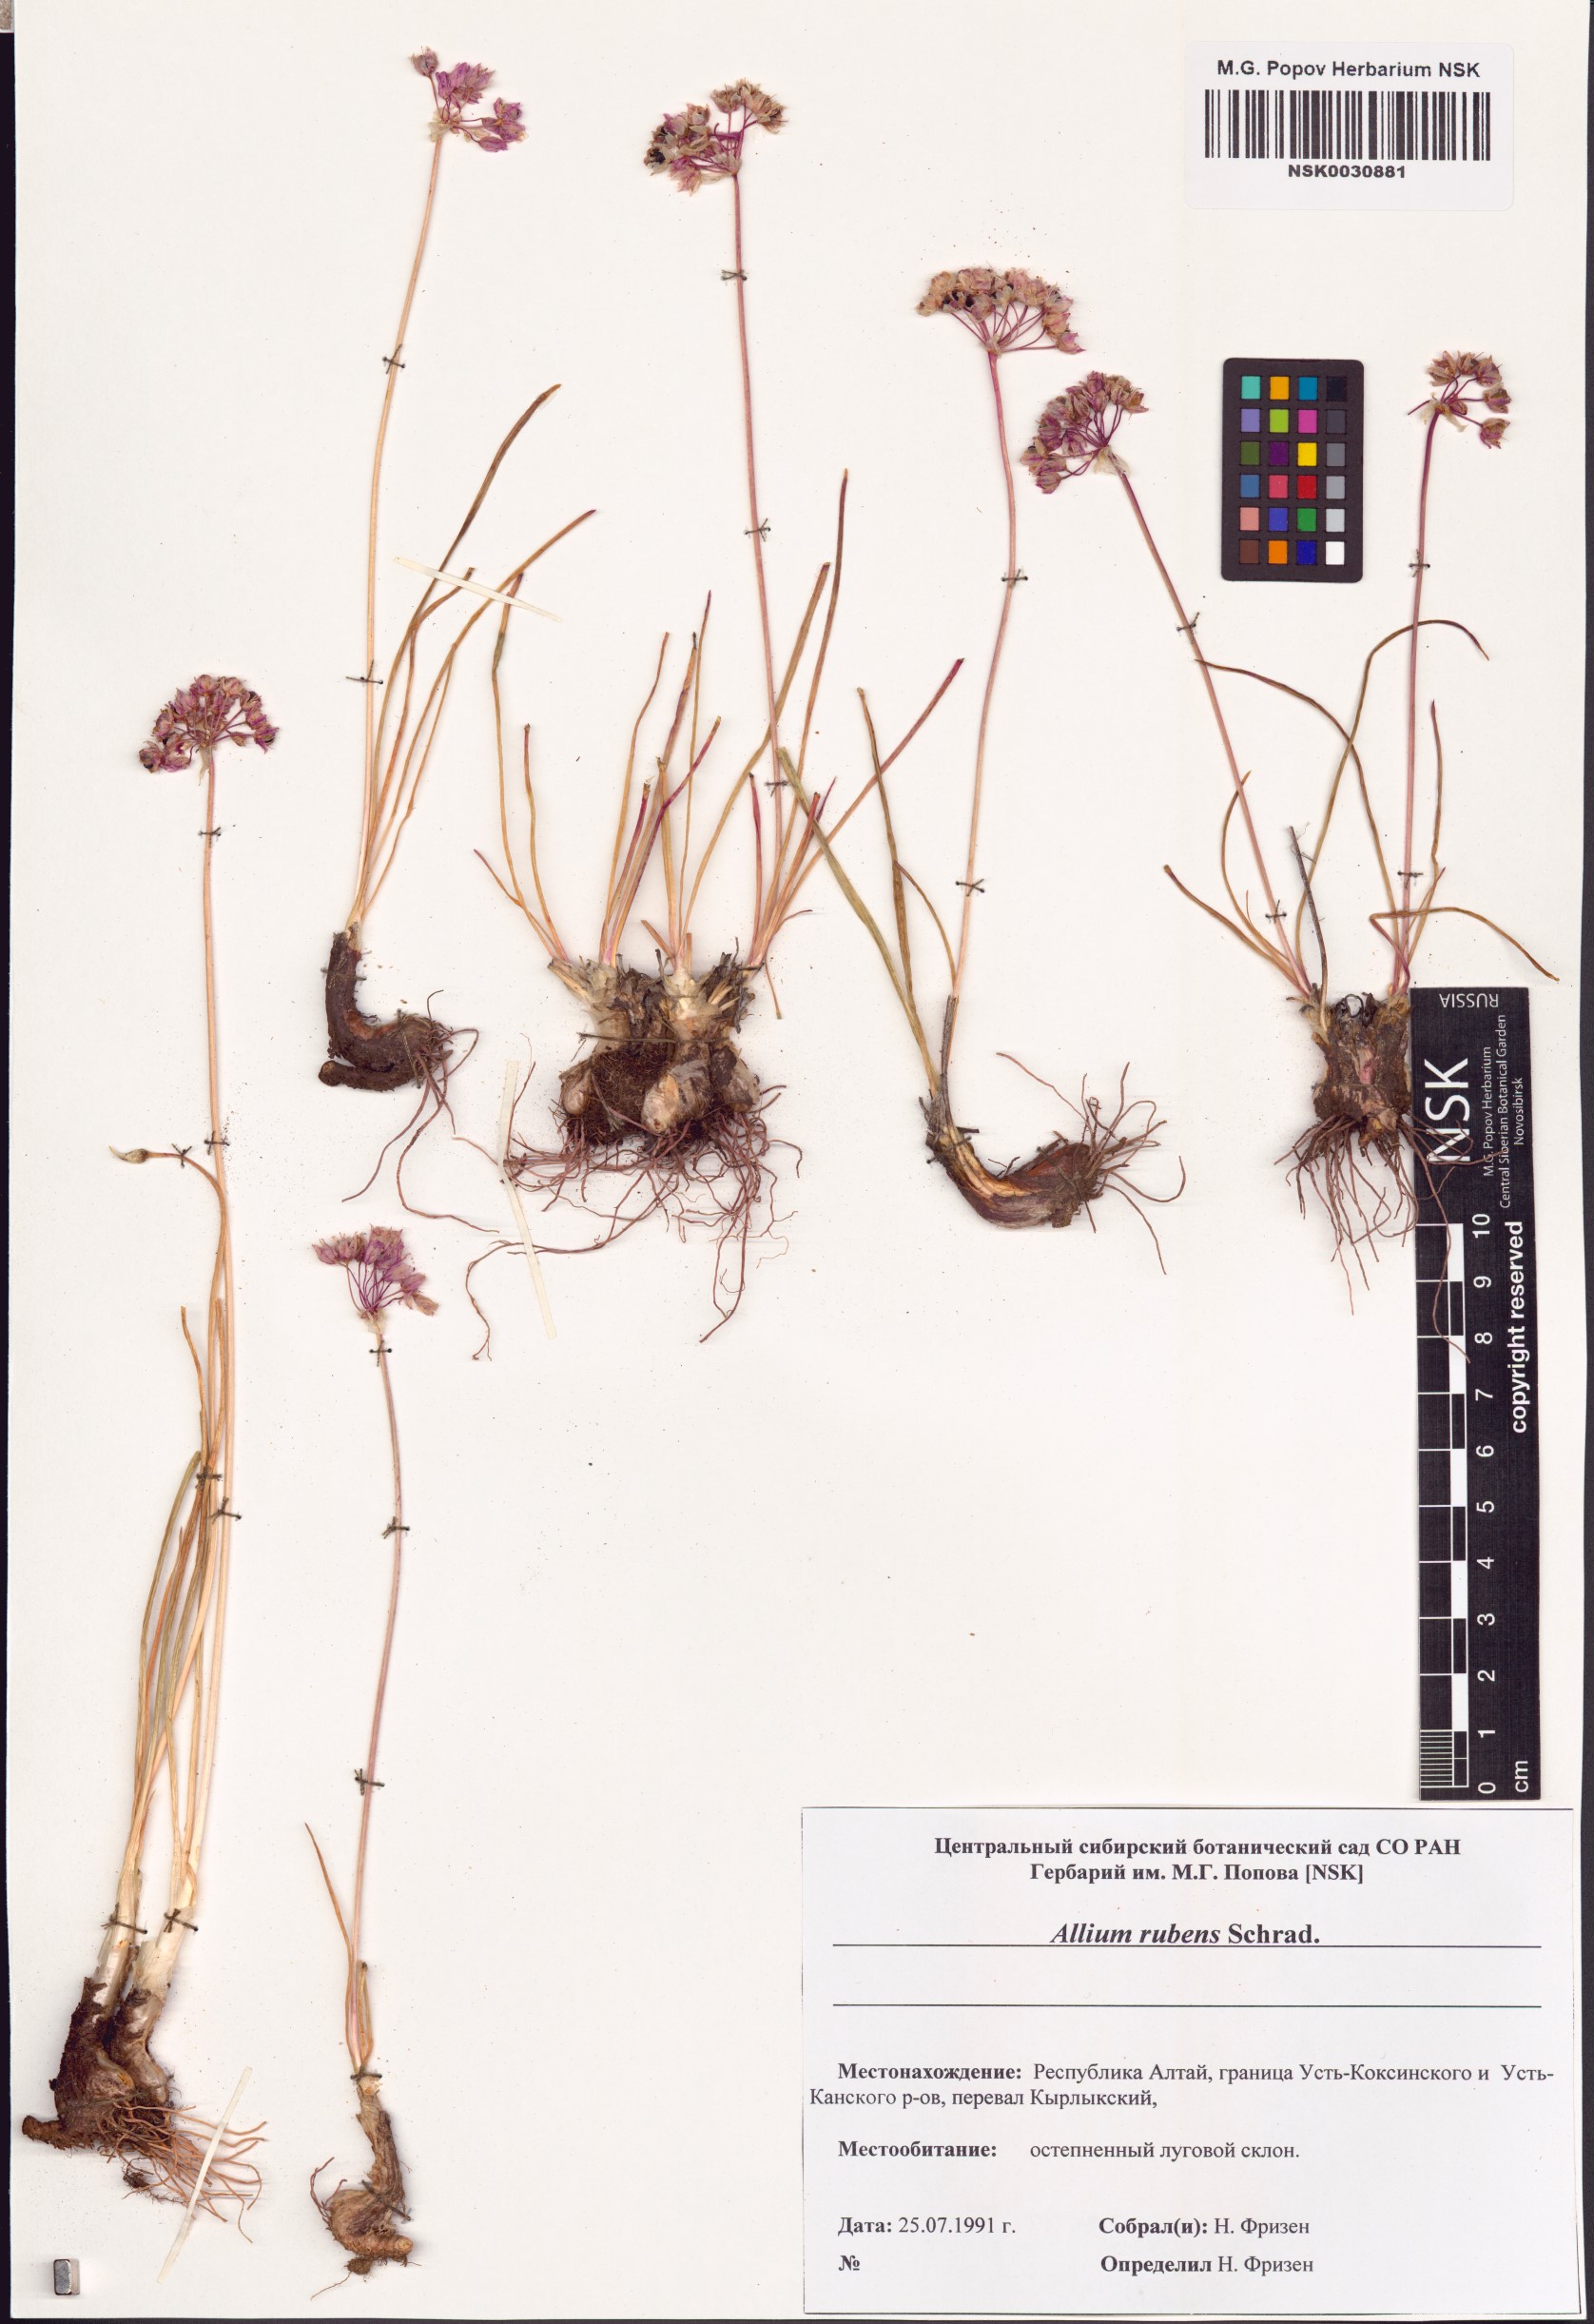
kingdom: Plantae
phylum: Tracheophyta
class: Liliopsida
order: Asparagales
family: Amaryllidaceae
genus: Allium
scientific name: Allium rubens
